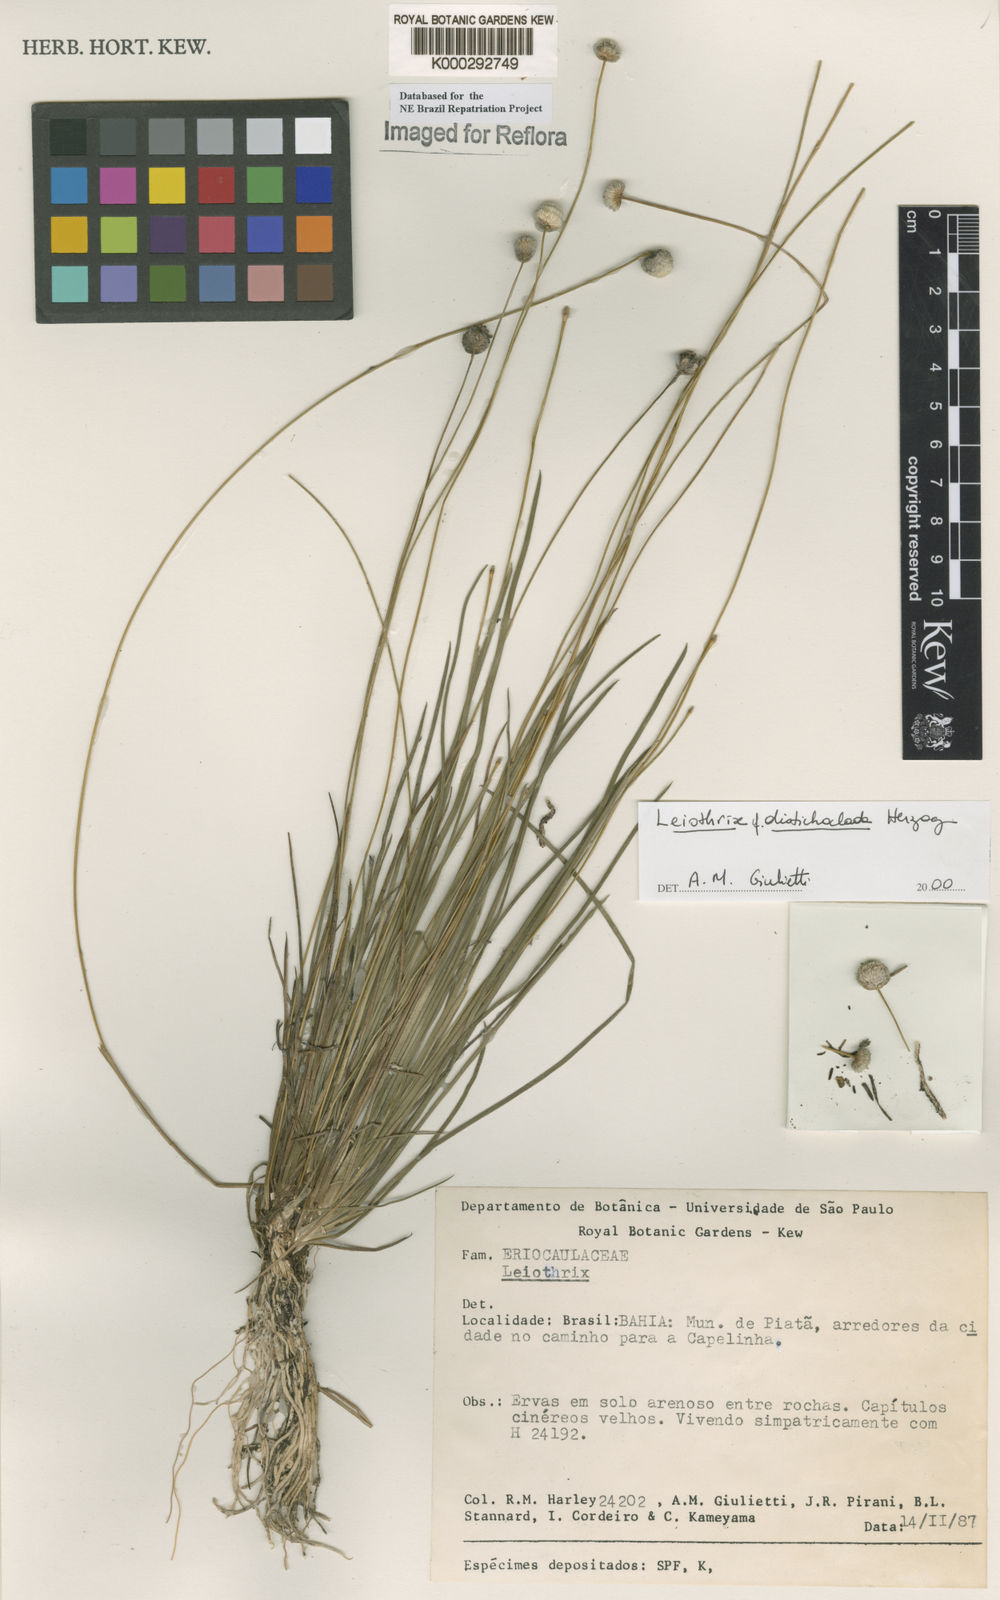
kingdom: Plantae
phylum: Tracheophyta
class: Liliopsida
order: Poales
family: Eriocaulaceae
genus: Leiothrix
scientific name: Leiothrix distichoclada
